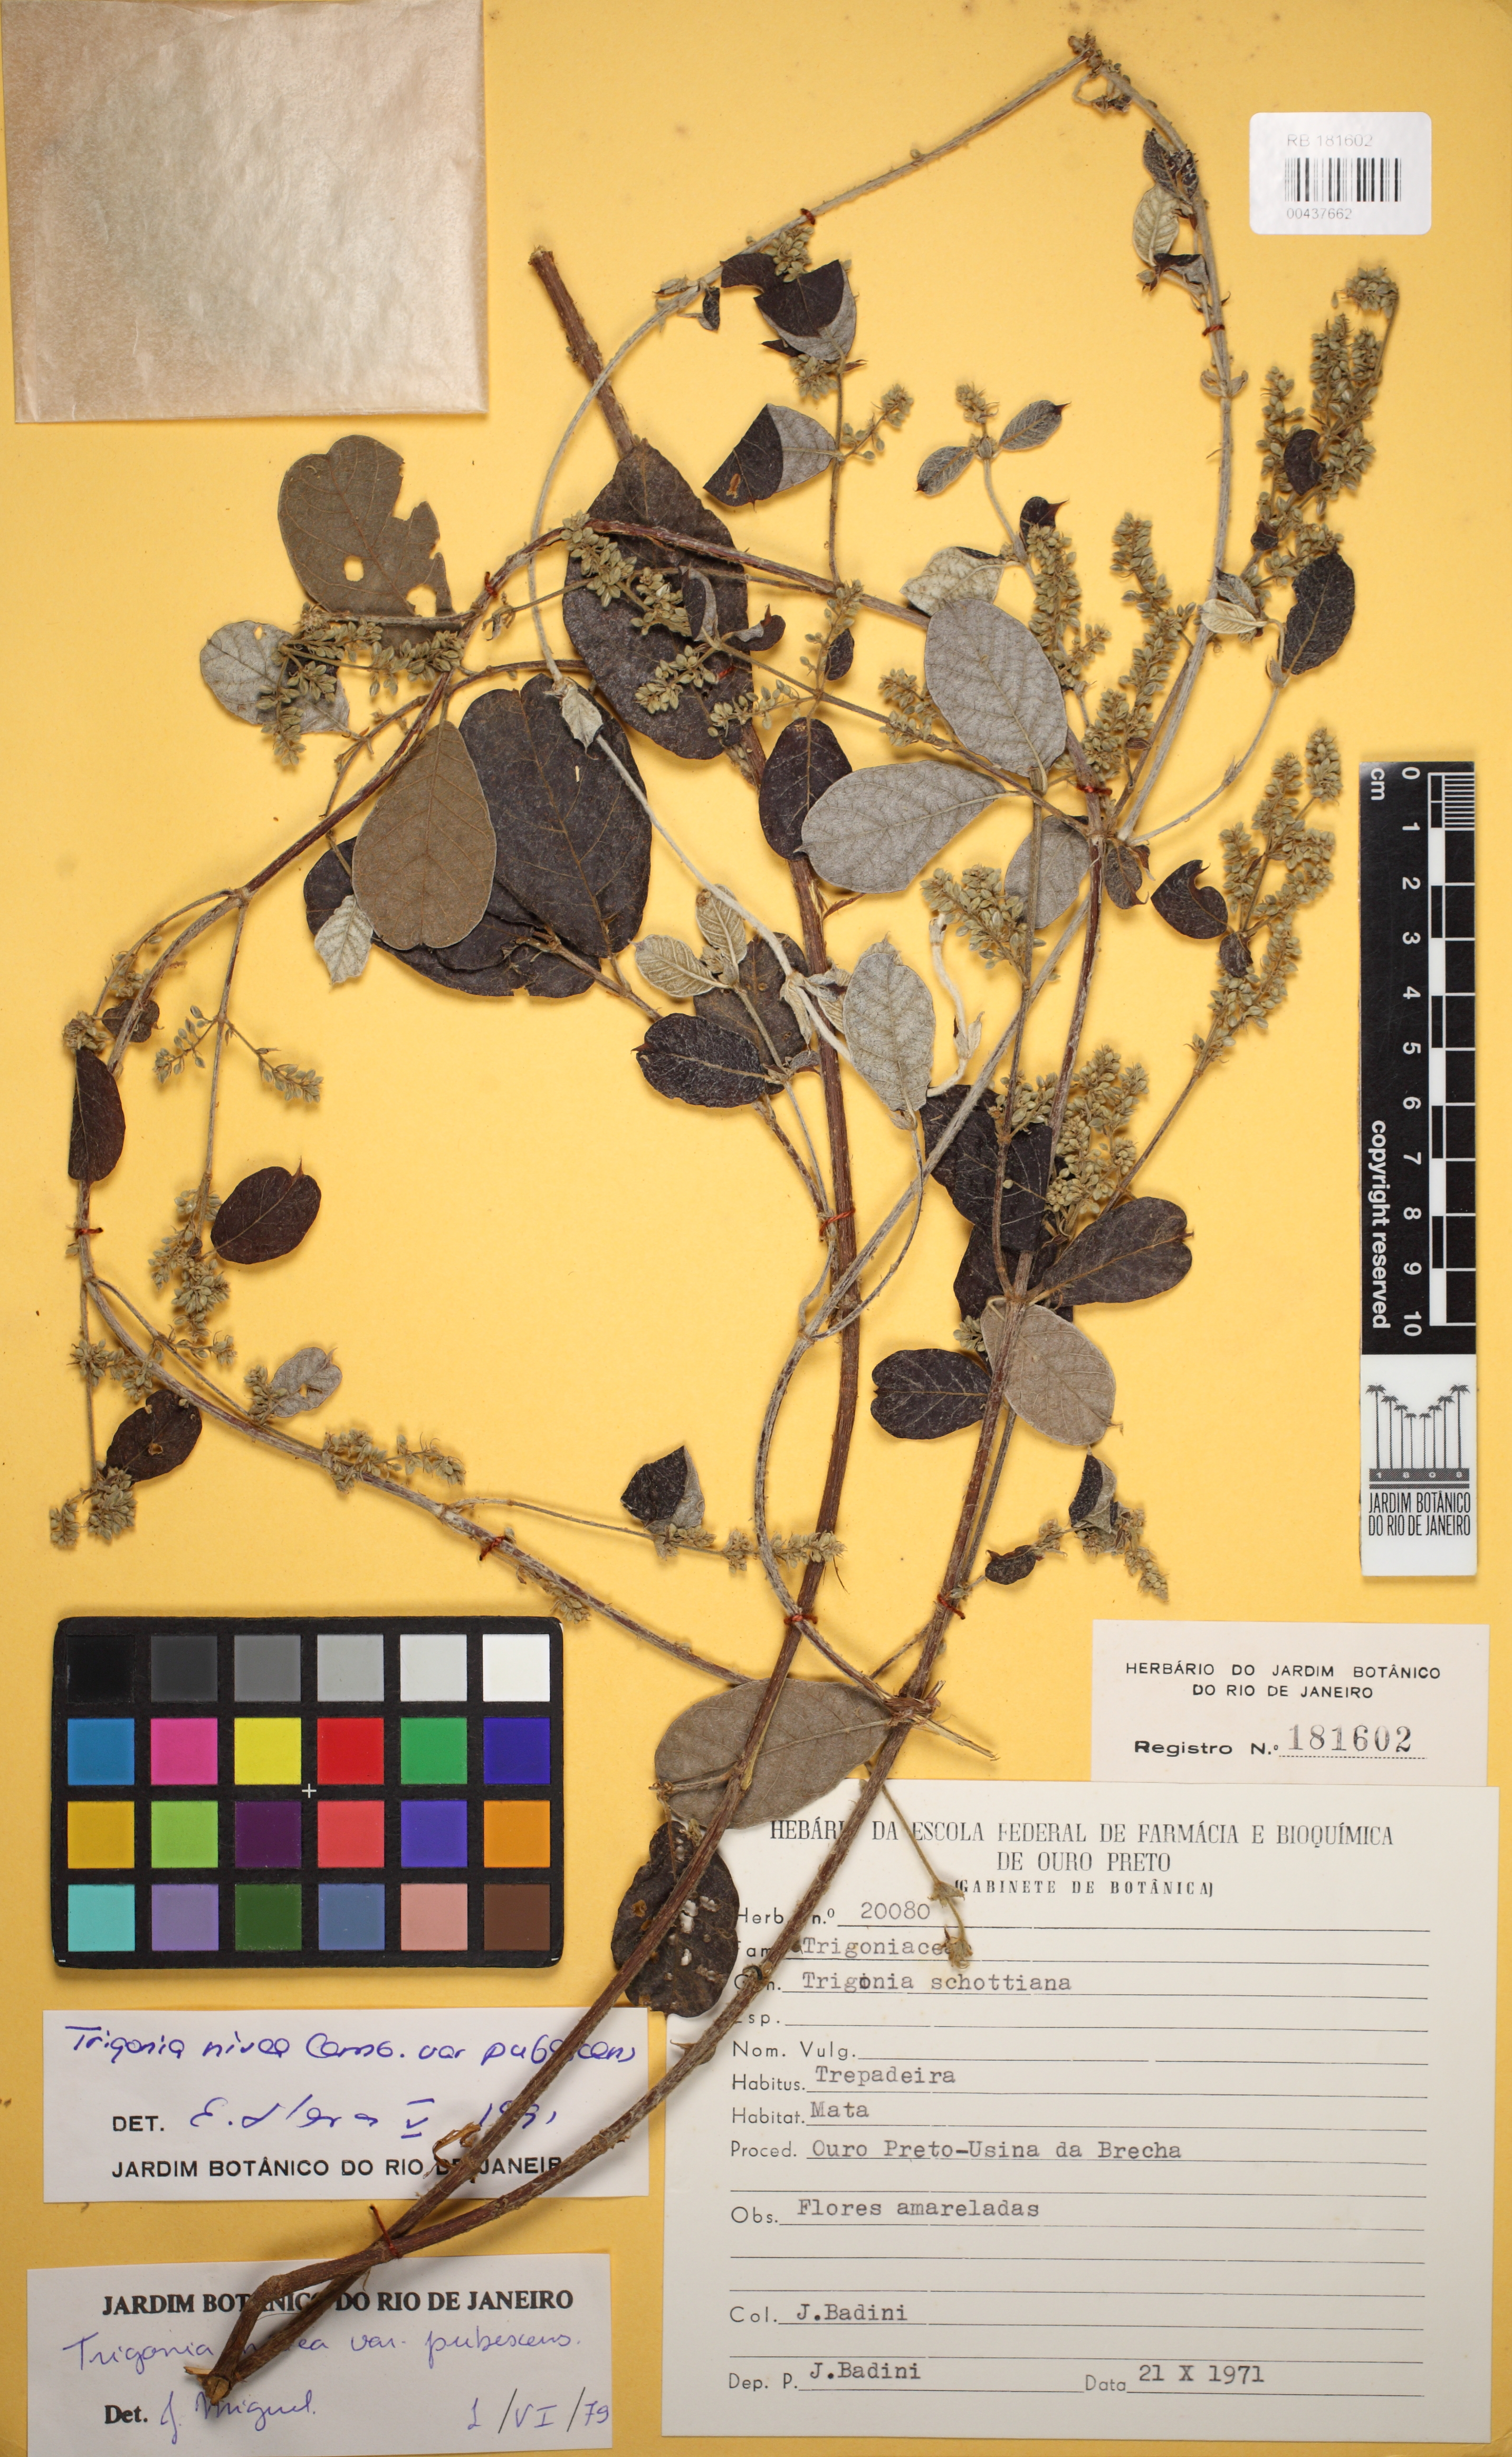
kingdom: Plantae
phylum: Tracheophyta
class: Magnoliopsida
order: Malpighiales
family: Trigoniaceae
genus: Trigonia
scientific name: Trigonia nivea
